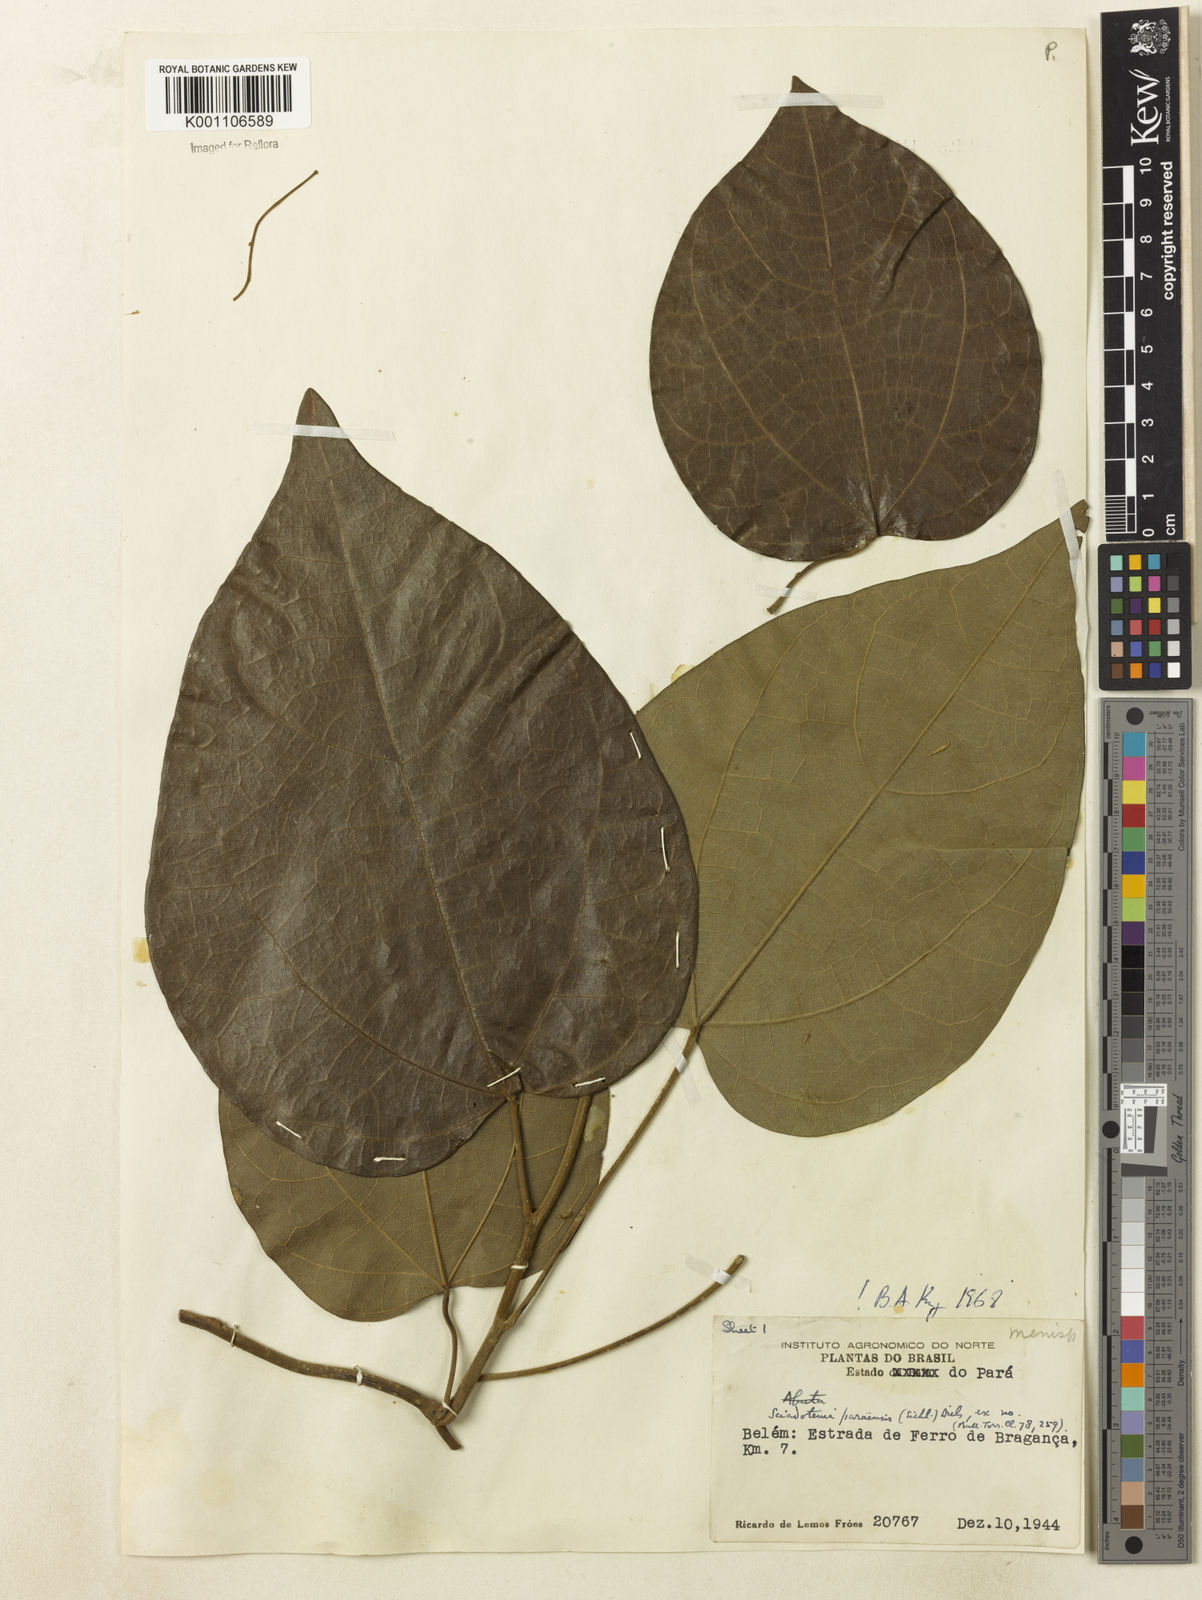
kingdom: Plantae
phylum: Tracheophyta
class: Magnoliopsida
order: Ranunculales
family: Menispermaceae
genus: Sciadotenia
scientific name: Sciadotenia paraensis
